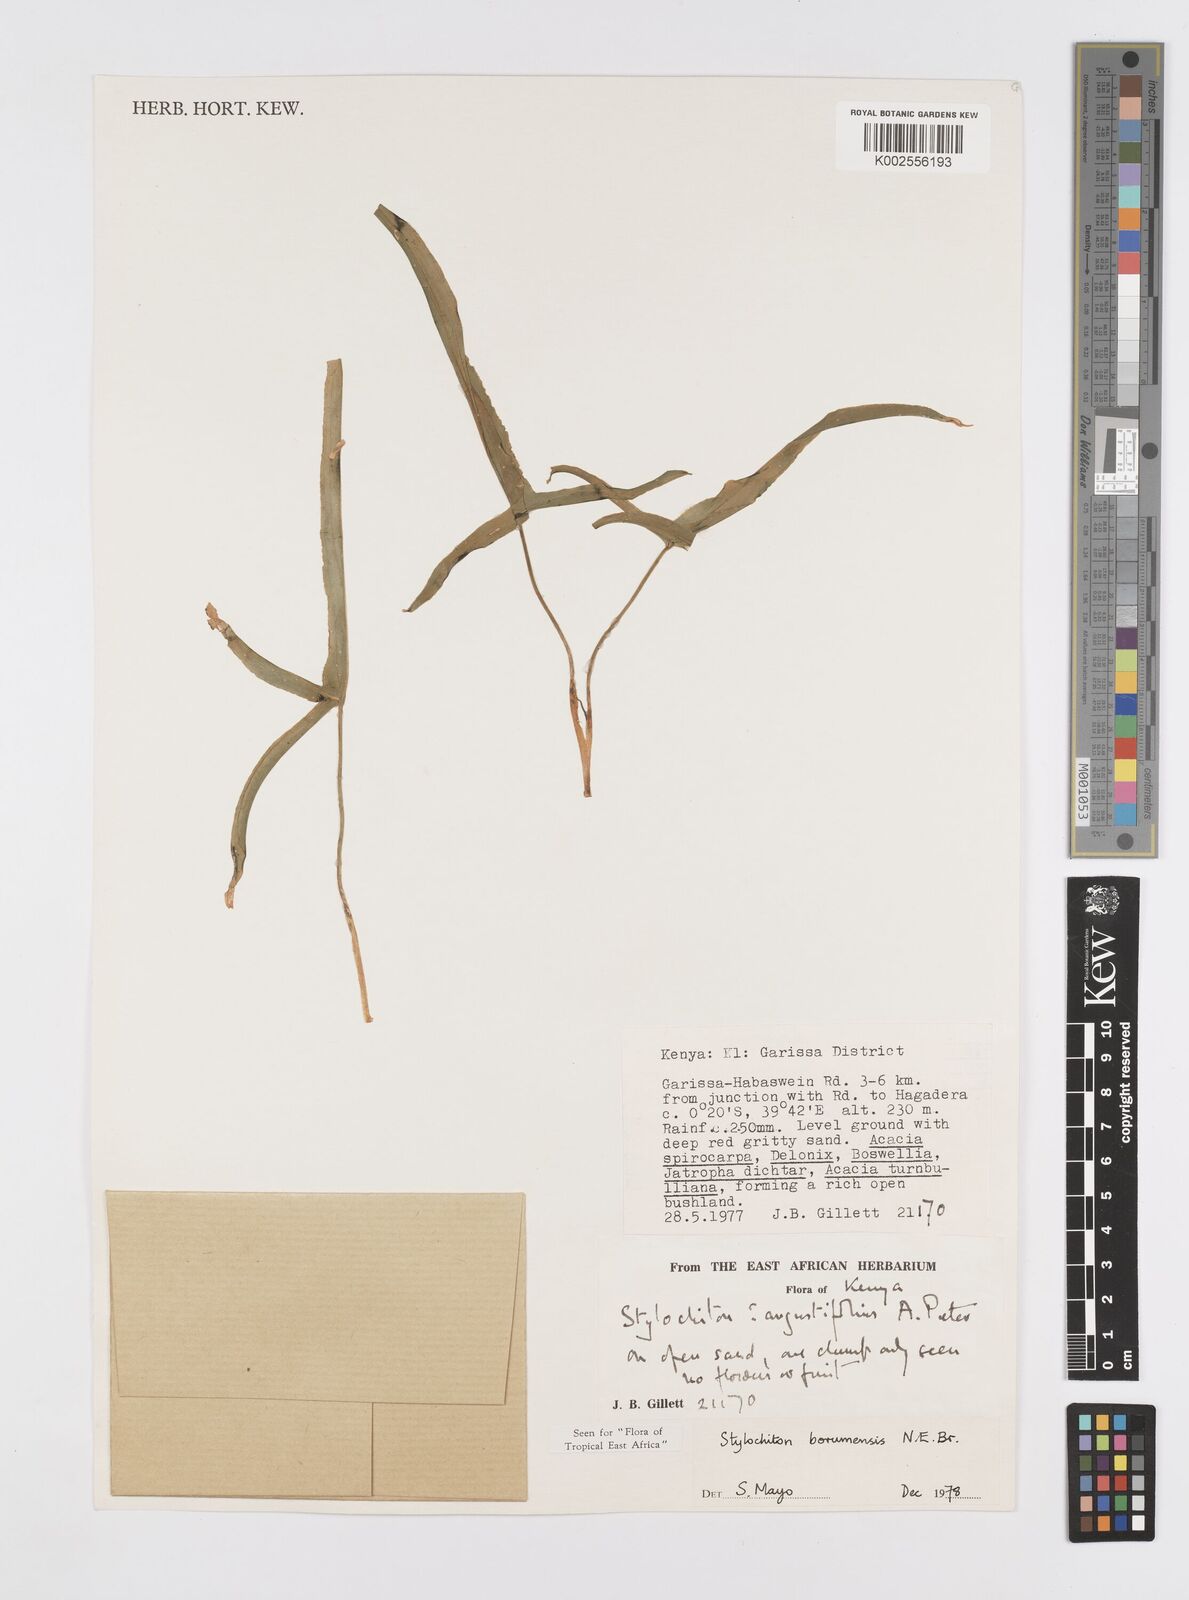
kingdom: Plantae
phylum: Tracheophyta
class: Liliopsida
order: Alismatales
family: Araceae
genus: Stylochaeton
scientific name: Stylochaeton borumense
